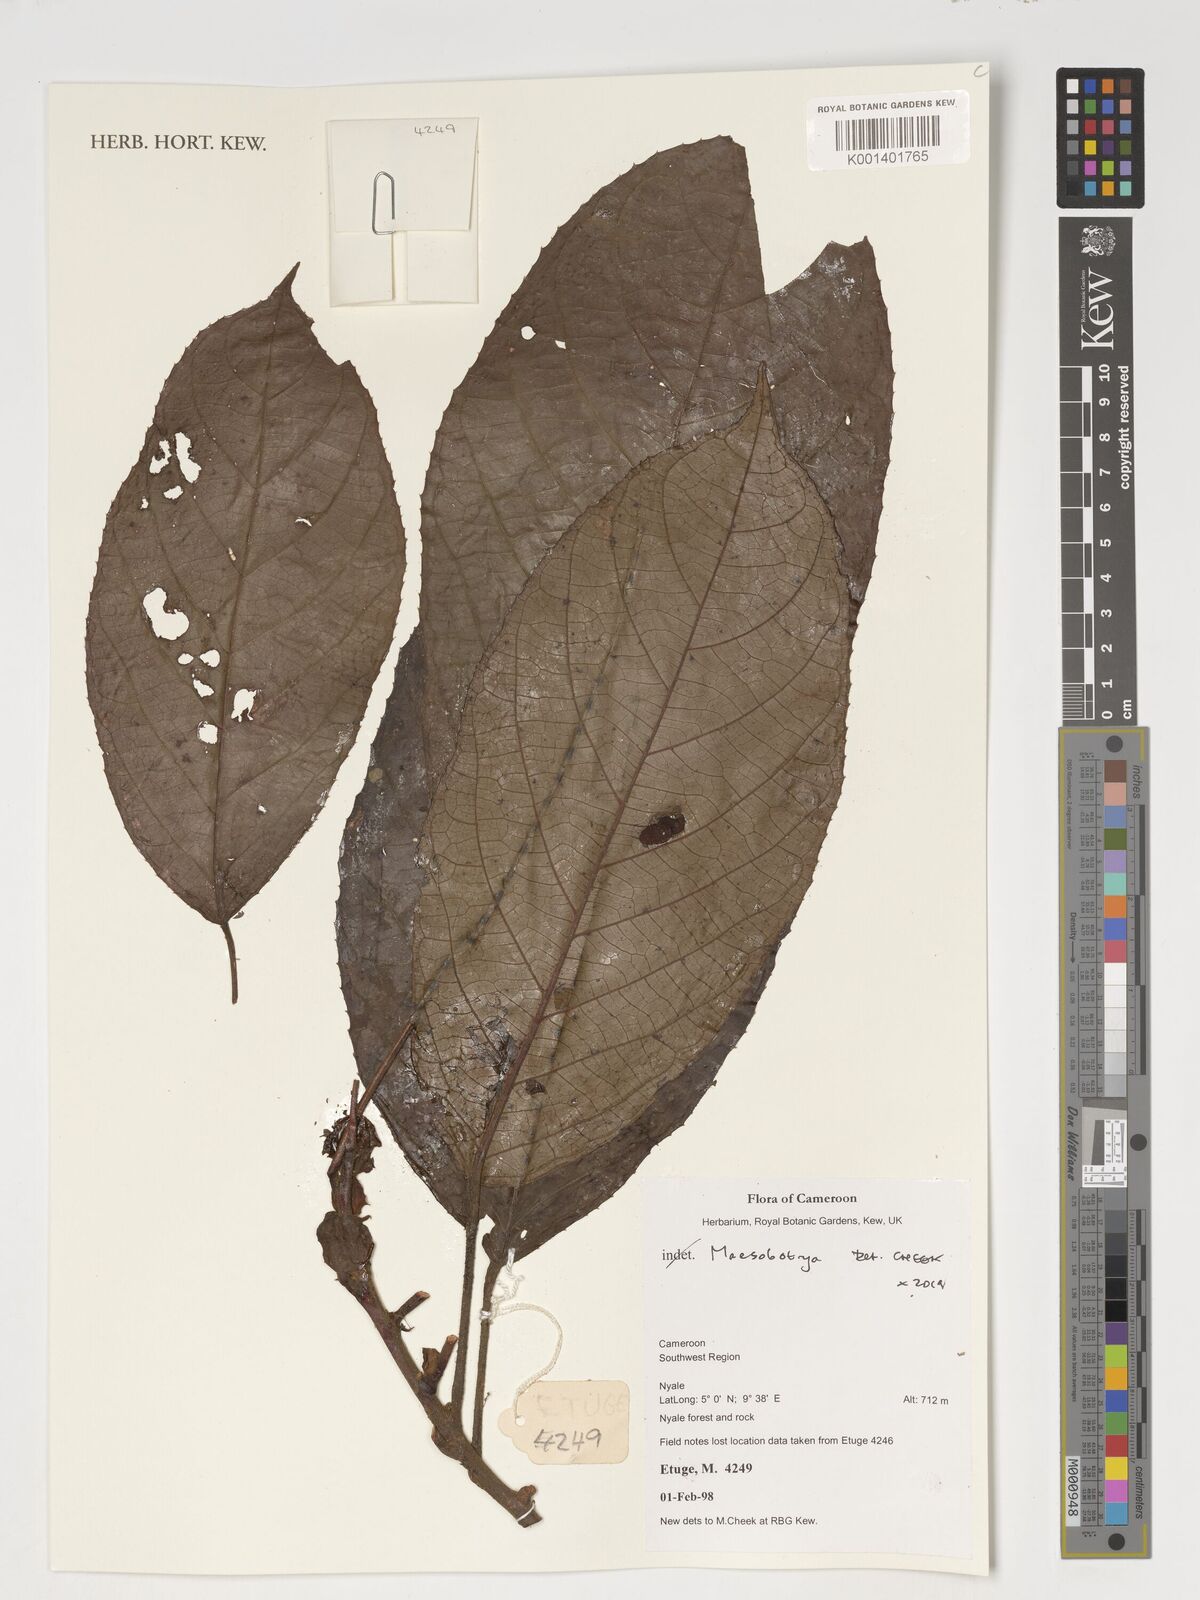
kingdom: Plantae
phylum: Tracheophyta
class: Magnoliopsida
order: Malpighiales
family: Phyllanthaceae
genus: Maesobotrya
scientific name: Maesobotrya
